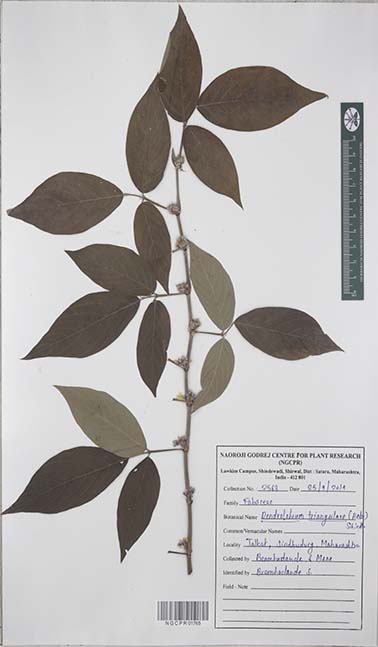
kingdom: Plantae
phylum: Tracheophyta
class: Magnoliopsida
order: Fabales
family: Fabaceae
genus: Dendrolobium
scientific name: Dendrolobium triangulare
